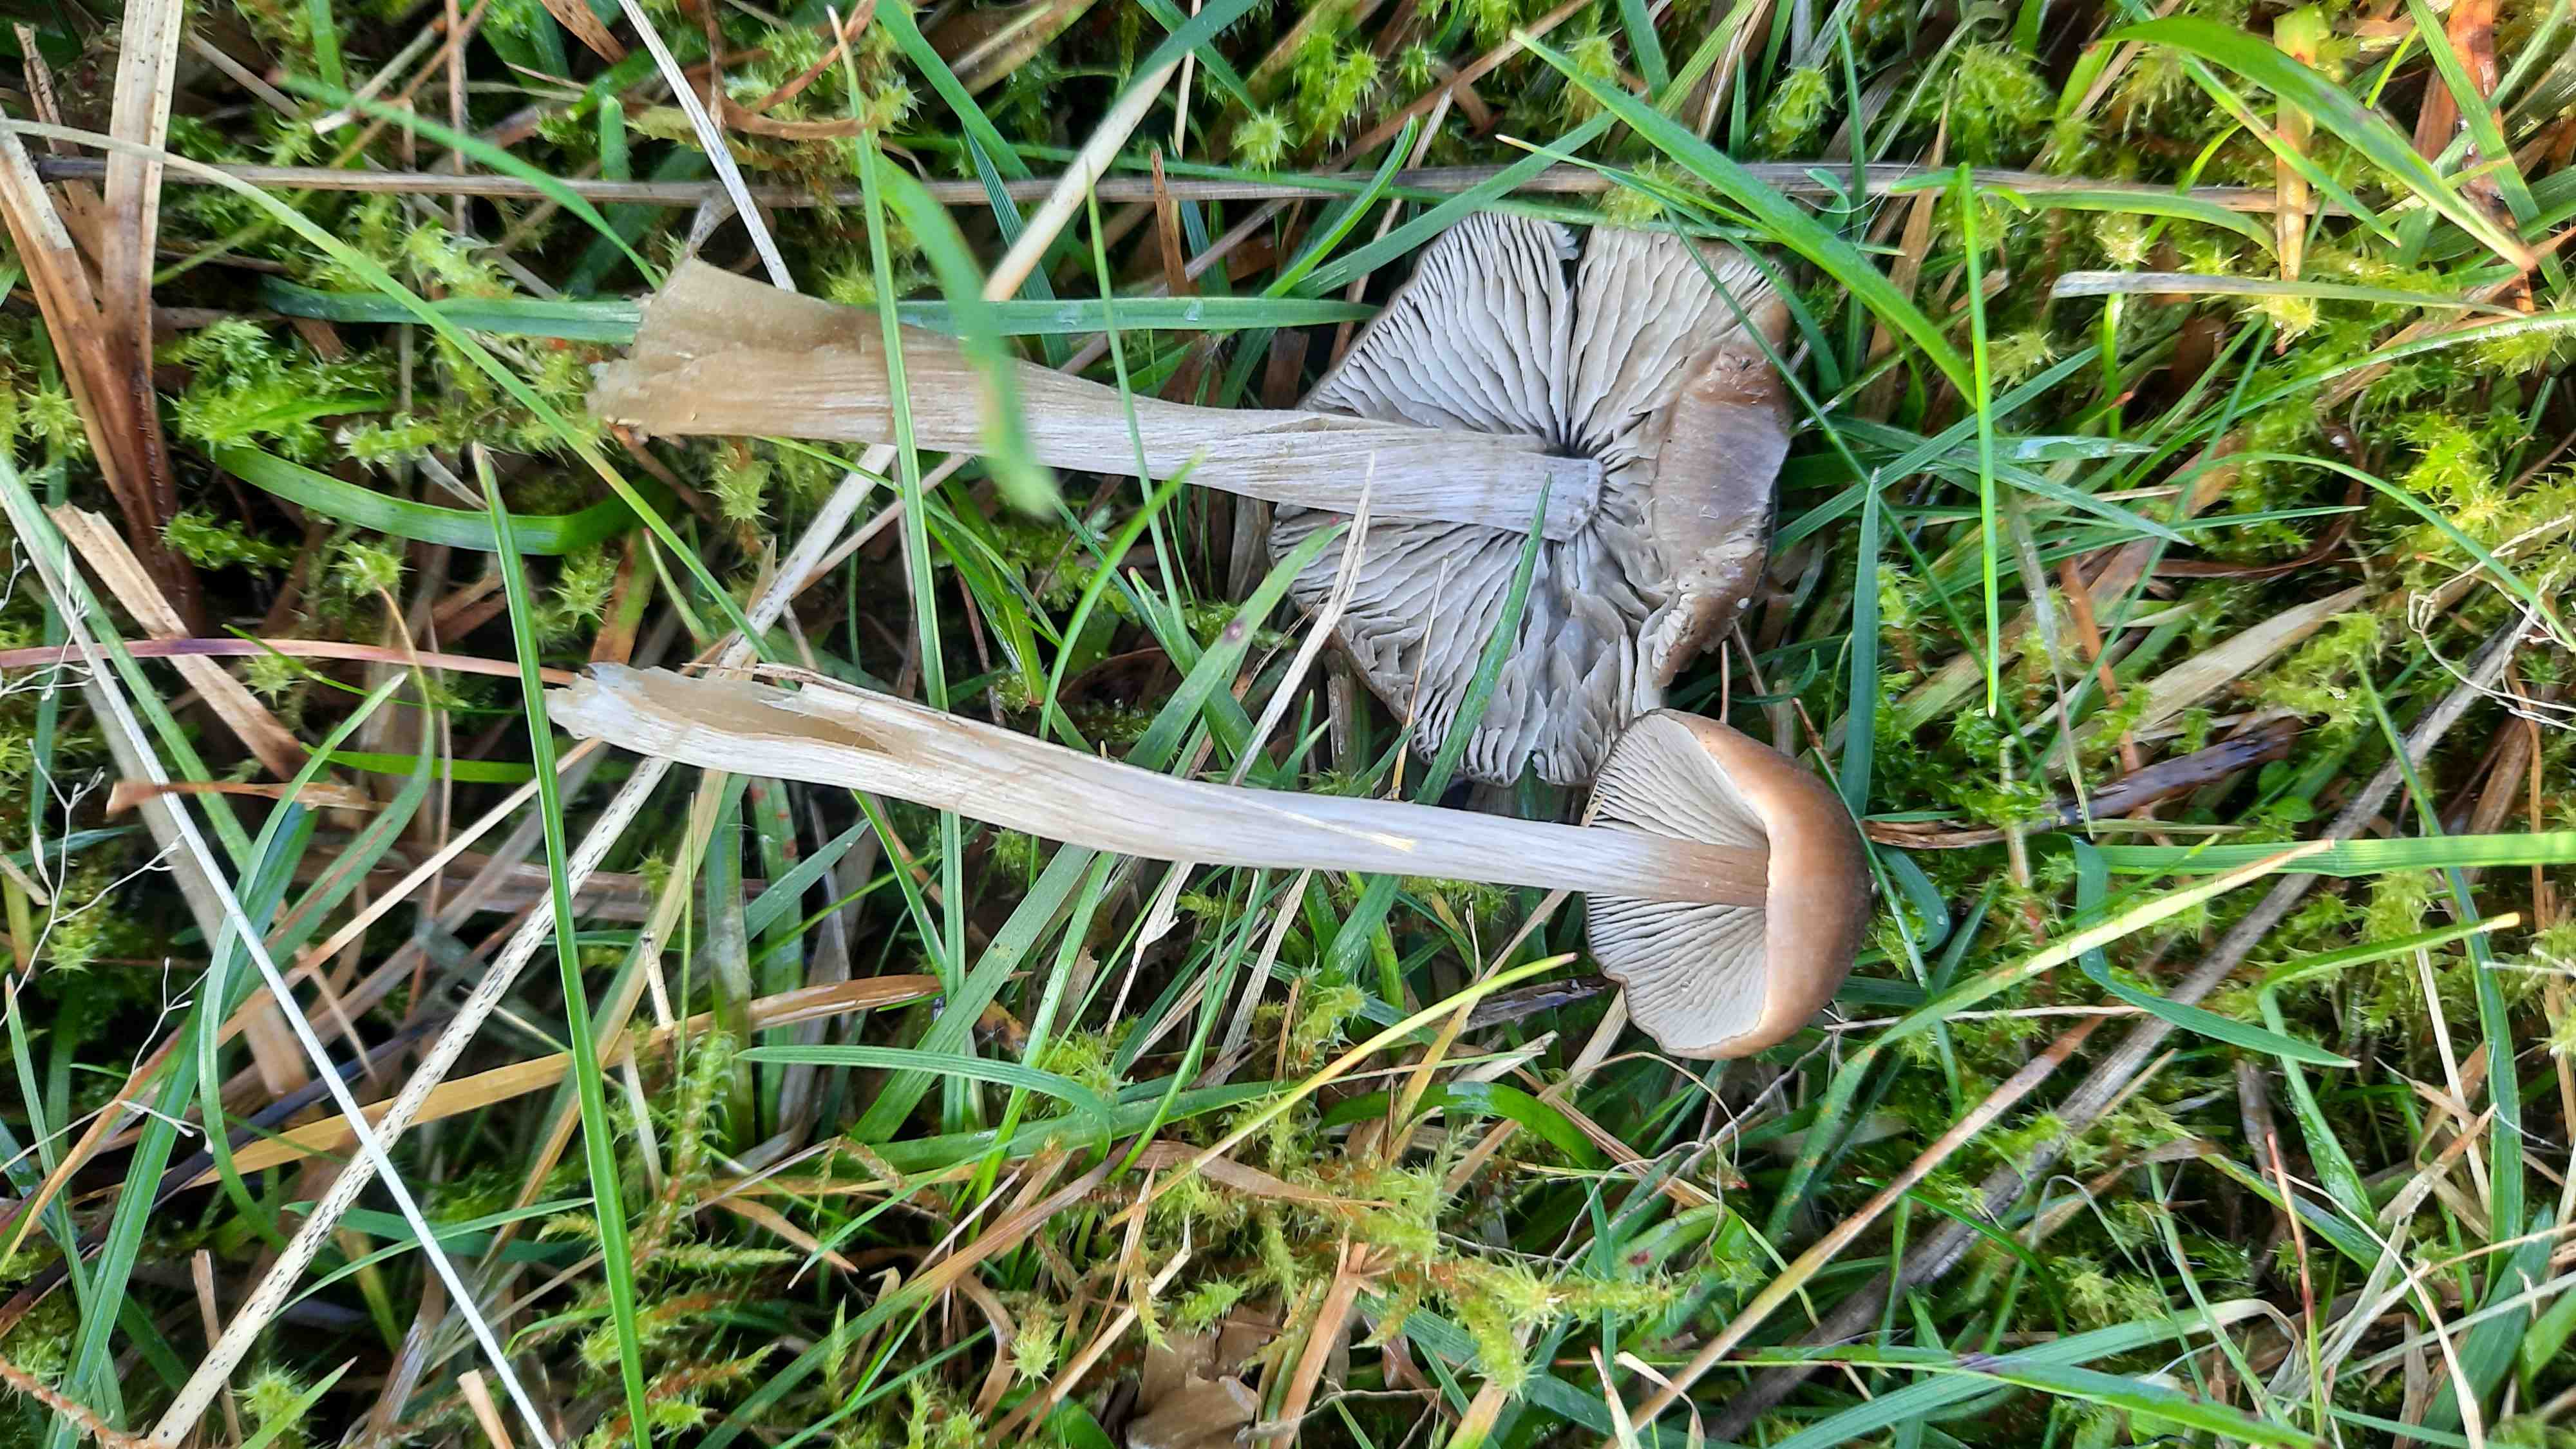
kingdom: Fungi
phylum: Basidiomycota
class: Agaricomycetes
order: Agaricales
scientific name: Agaricales
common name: champignonordenen
